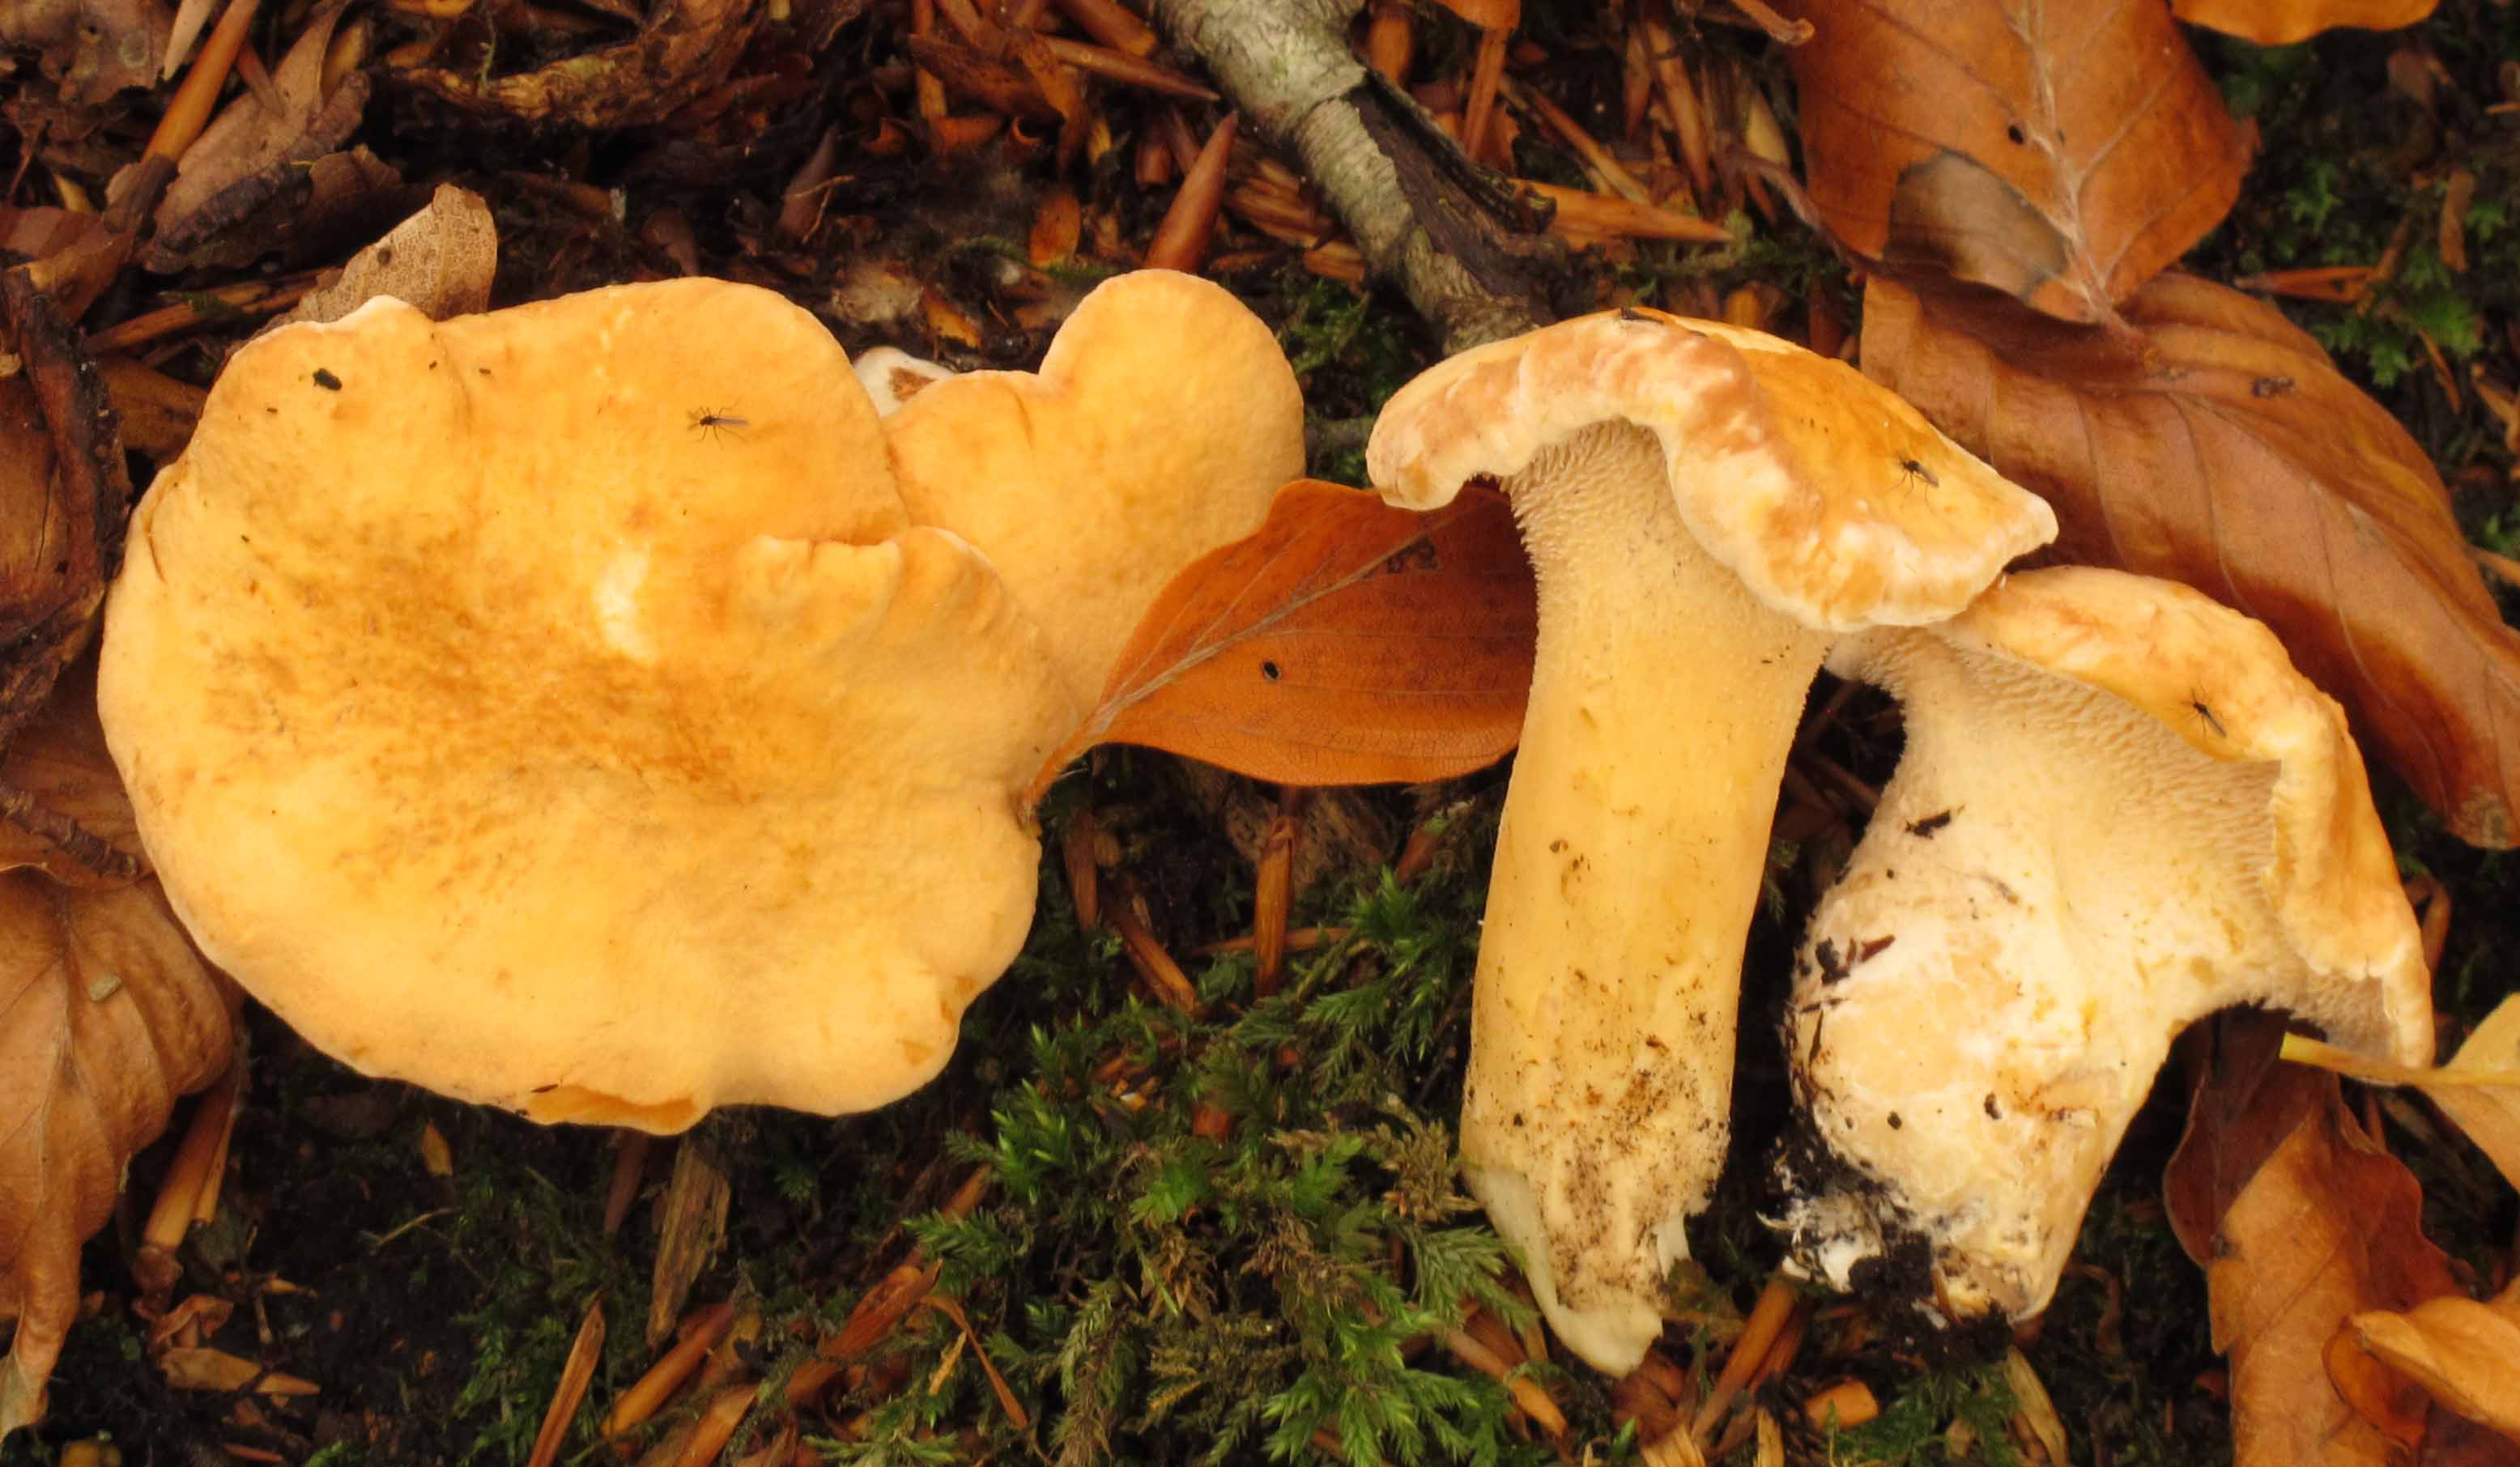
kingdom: Fungi
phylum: Basidiomycota
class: Agaricomycetes
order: Cantharellales
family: Hydnaceae
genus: Hydnum
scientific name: Hydnum rufescens
